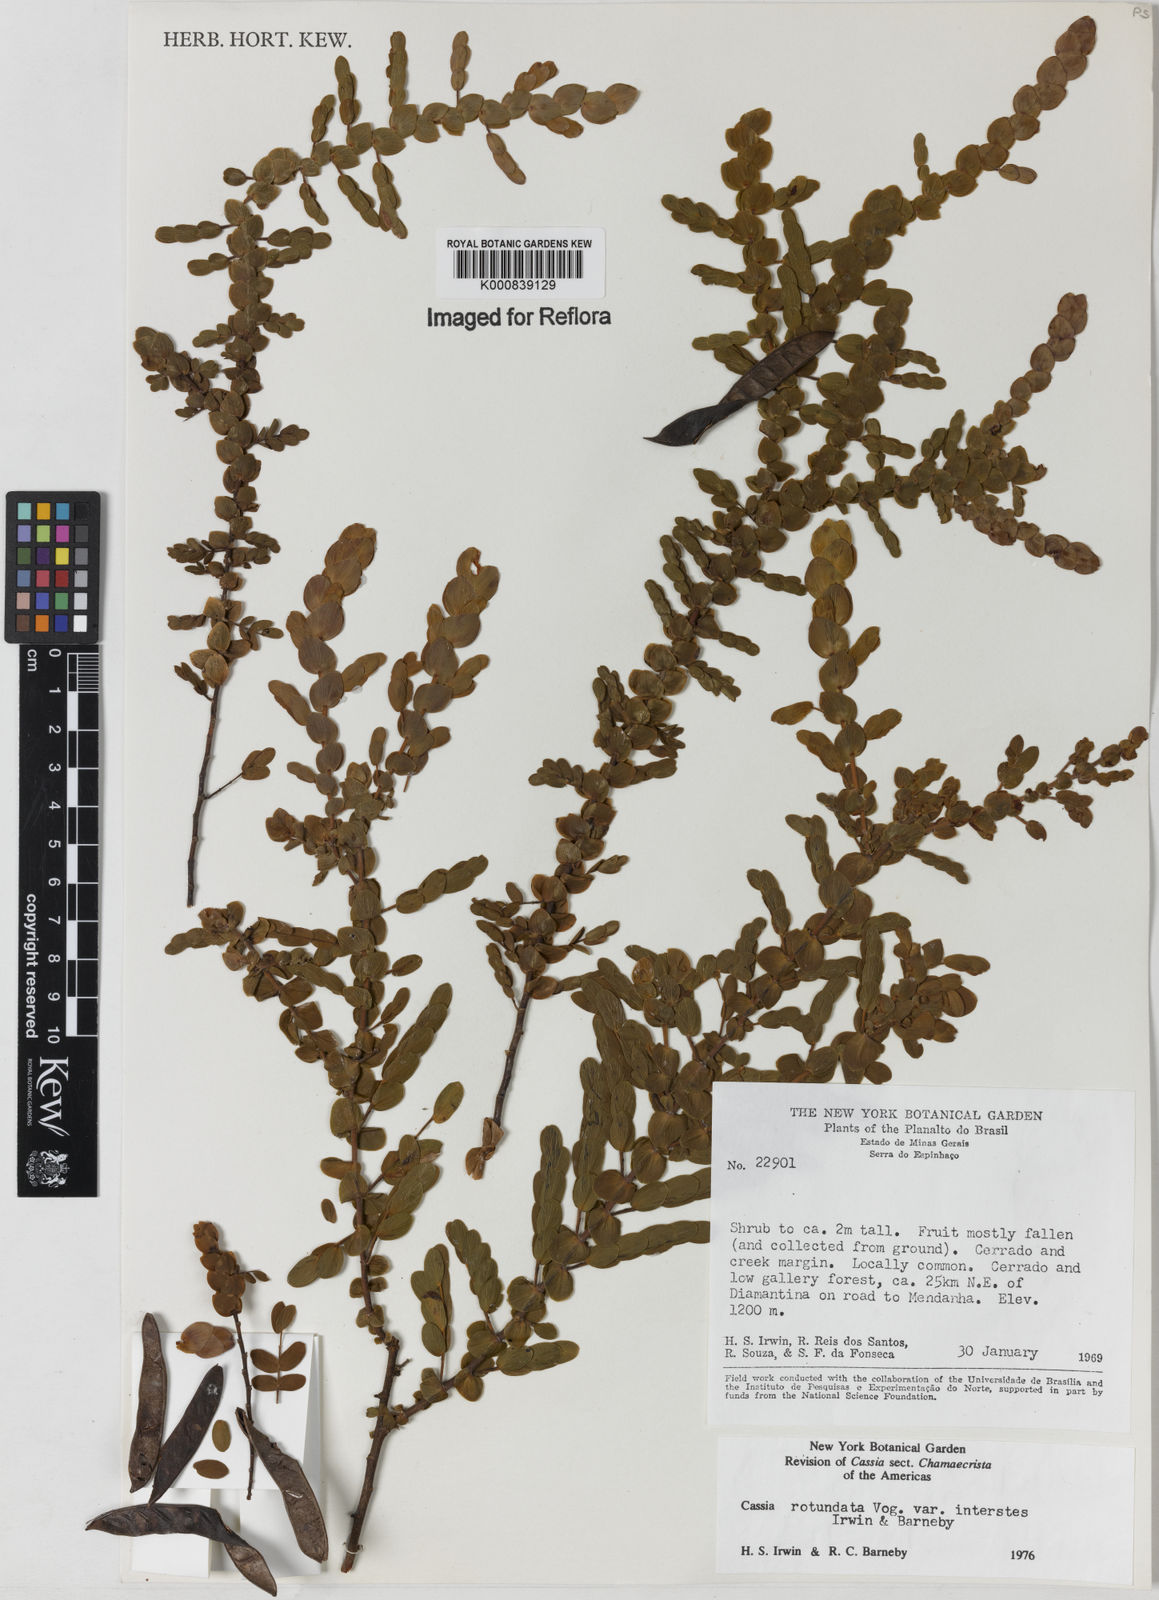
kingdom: Plantae
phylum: Tracheophyta
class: Magnoliopsida
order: Fabales
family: Fabaceae
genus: Chamaecrista
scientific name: Chamaecrista
